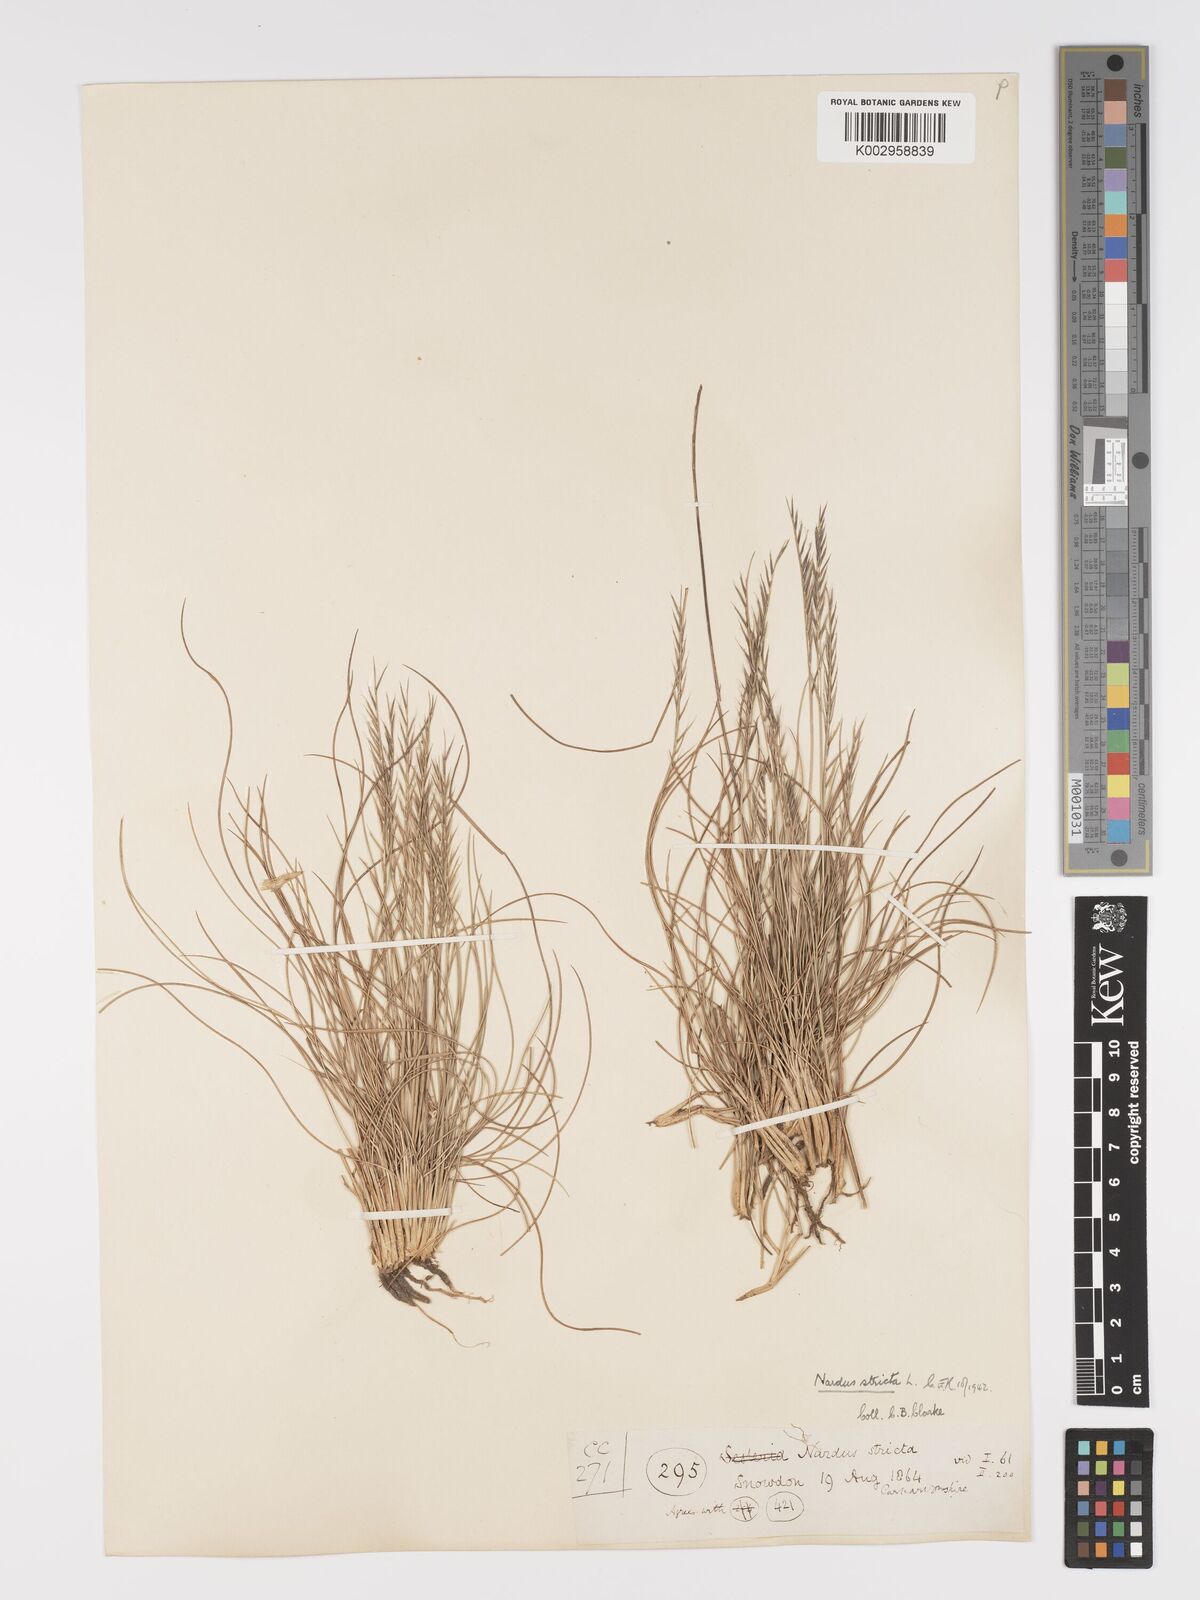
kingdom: Plantae
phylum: Tracheophyta
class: Liliopsida
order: Poales
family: Poaceae
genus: Nardus
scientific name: Nardus stricta
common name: Mat-grass
